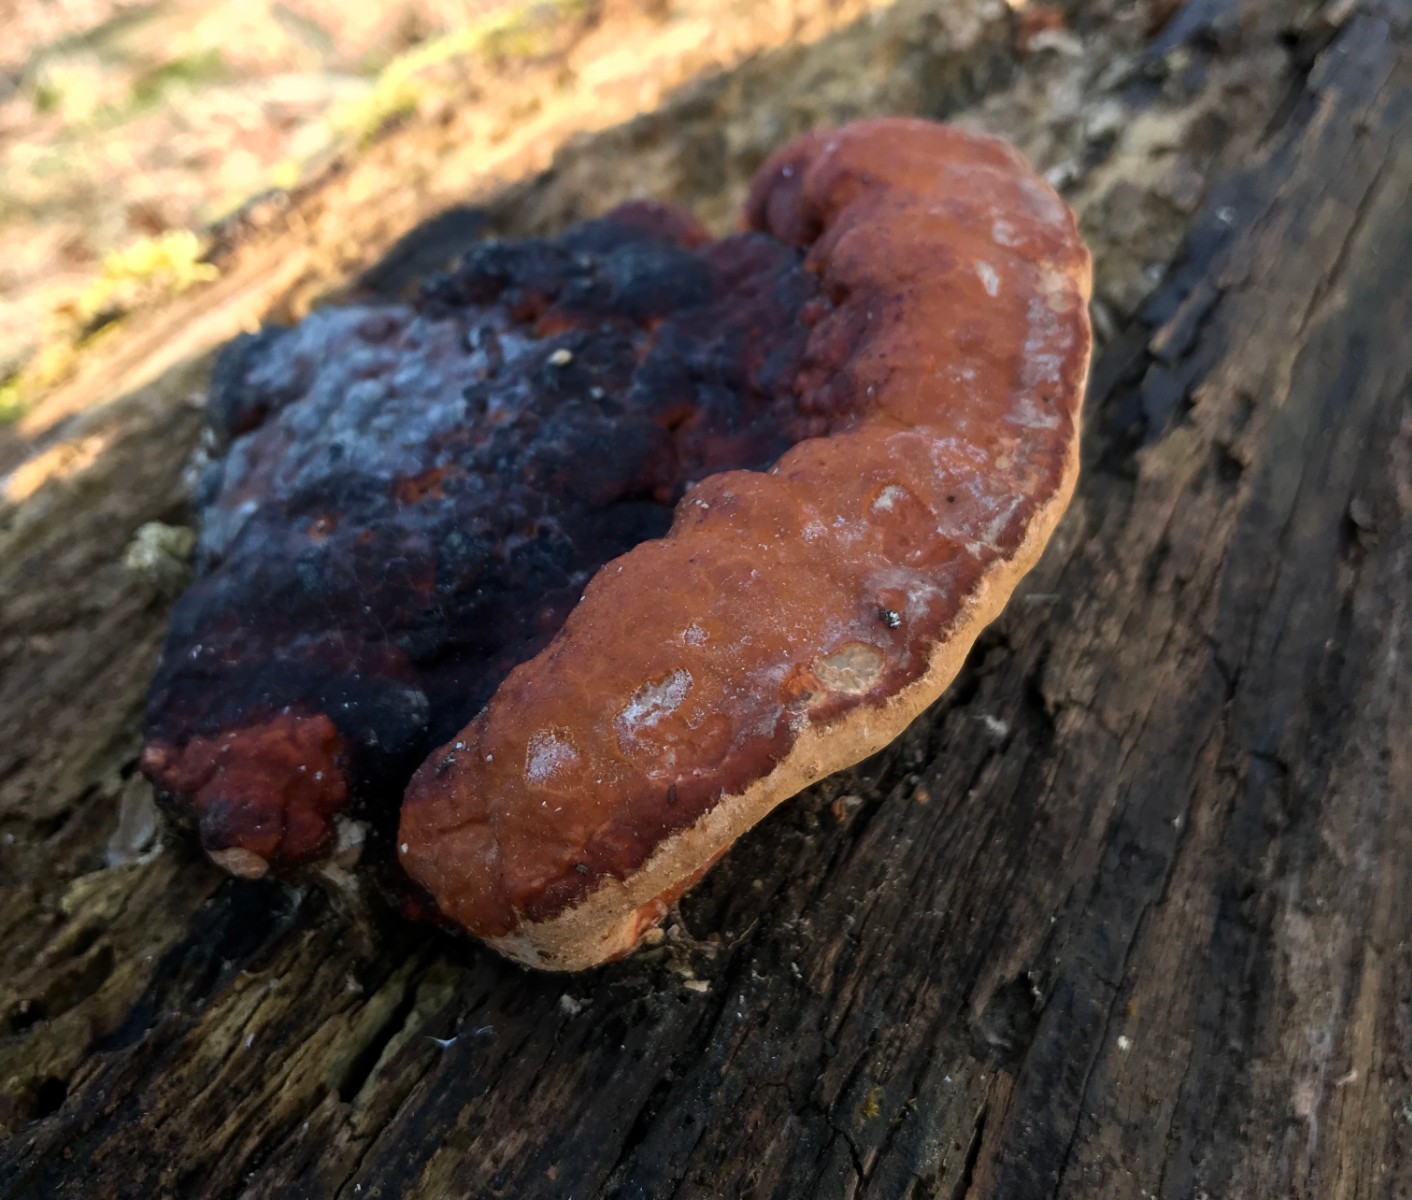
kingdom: Fungi
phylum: Basidiomycota
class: Agaricomycetes
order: Polyporales
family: Fomitopsidaceae
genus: Fomitopsis
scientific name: Fomitopsis pinicola
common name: randbæltet hovporesvamp
